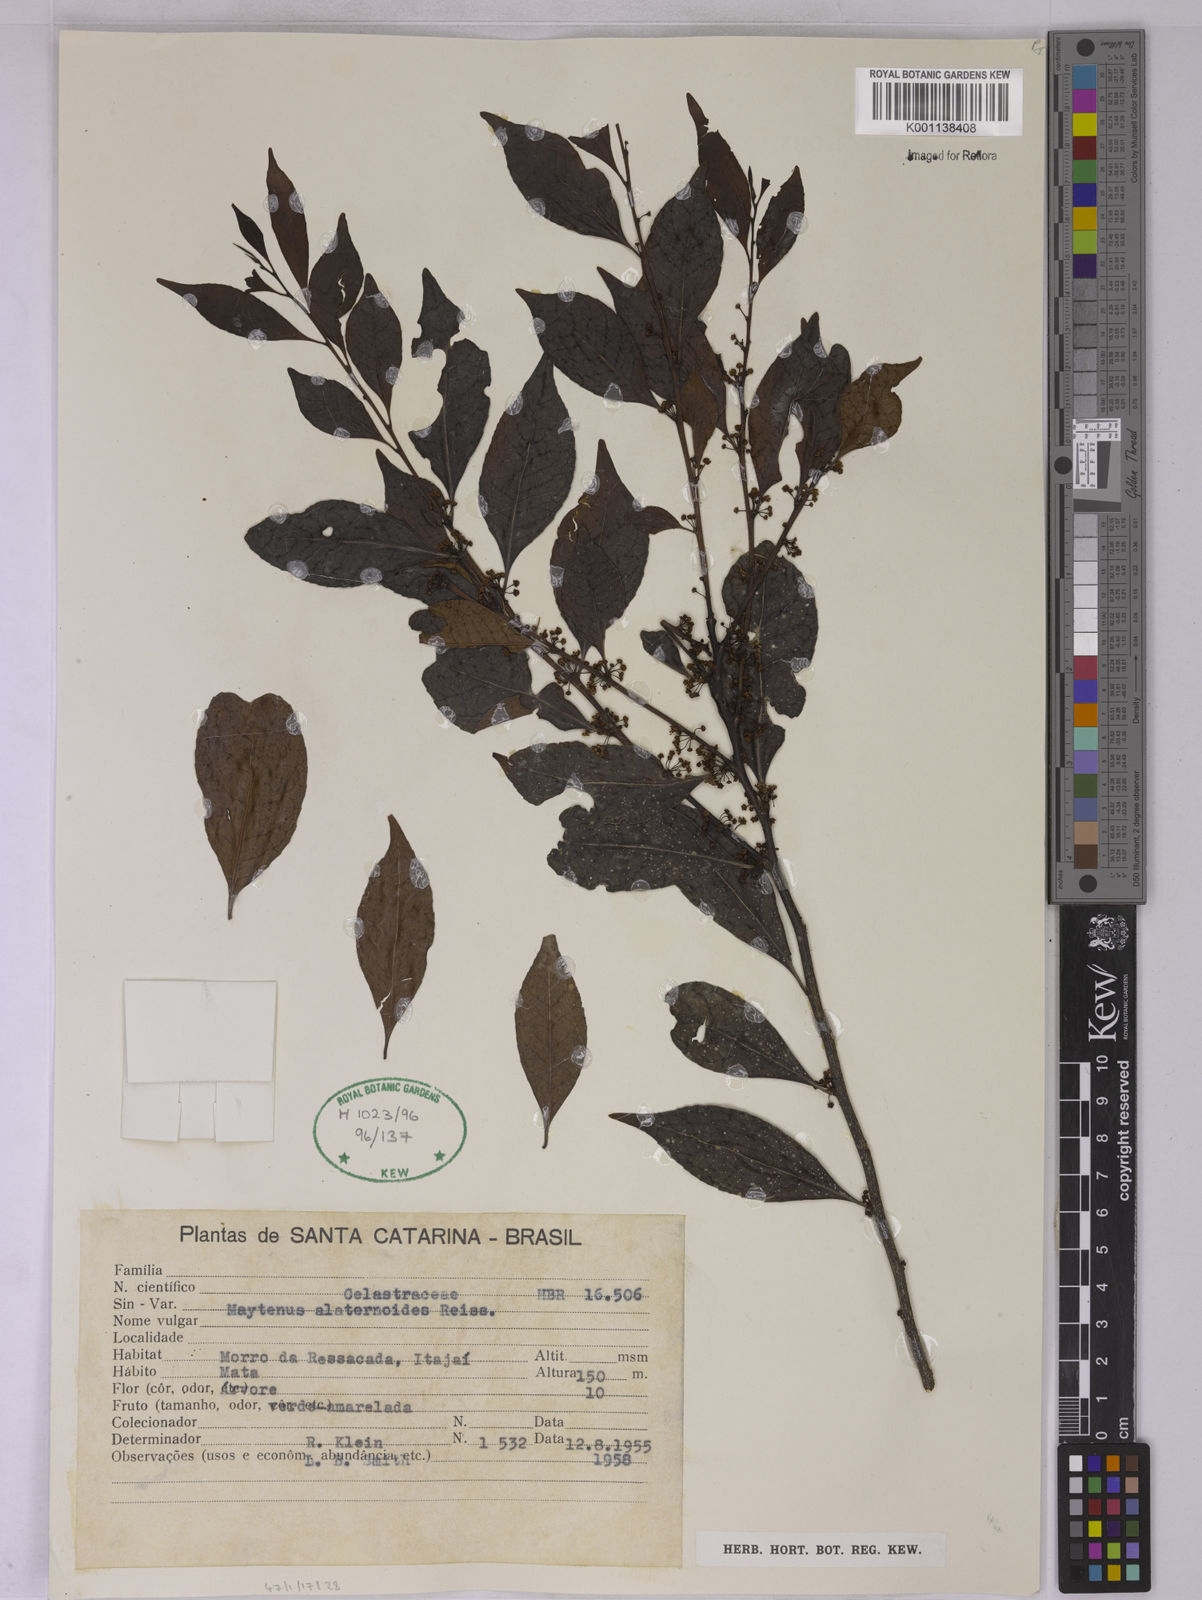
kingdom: Plantae
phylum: Tracheophyta
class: Magnoliopsida
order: Celastrales
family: Celastraceae
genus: Maytenus
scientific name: Maytenus alaternoides
